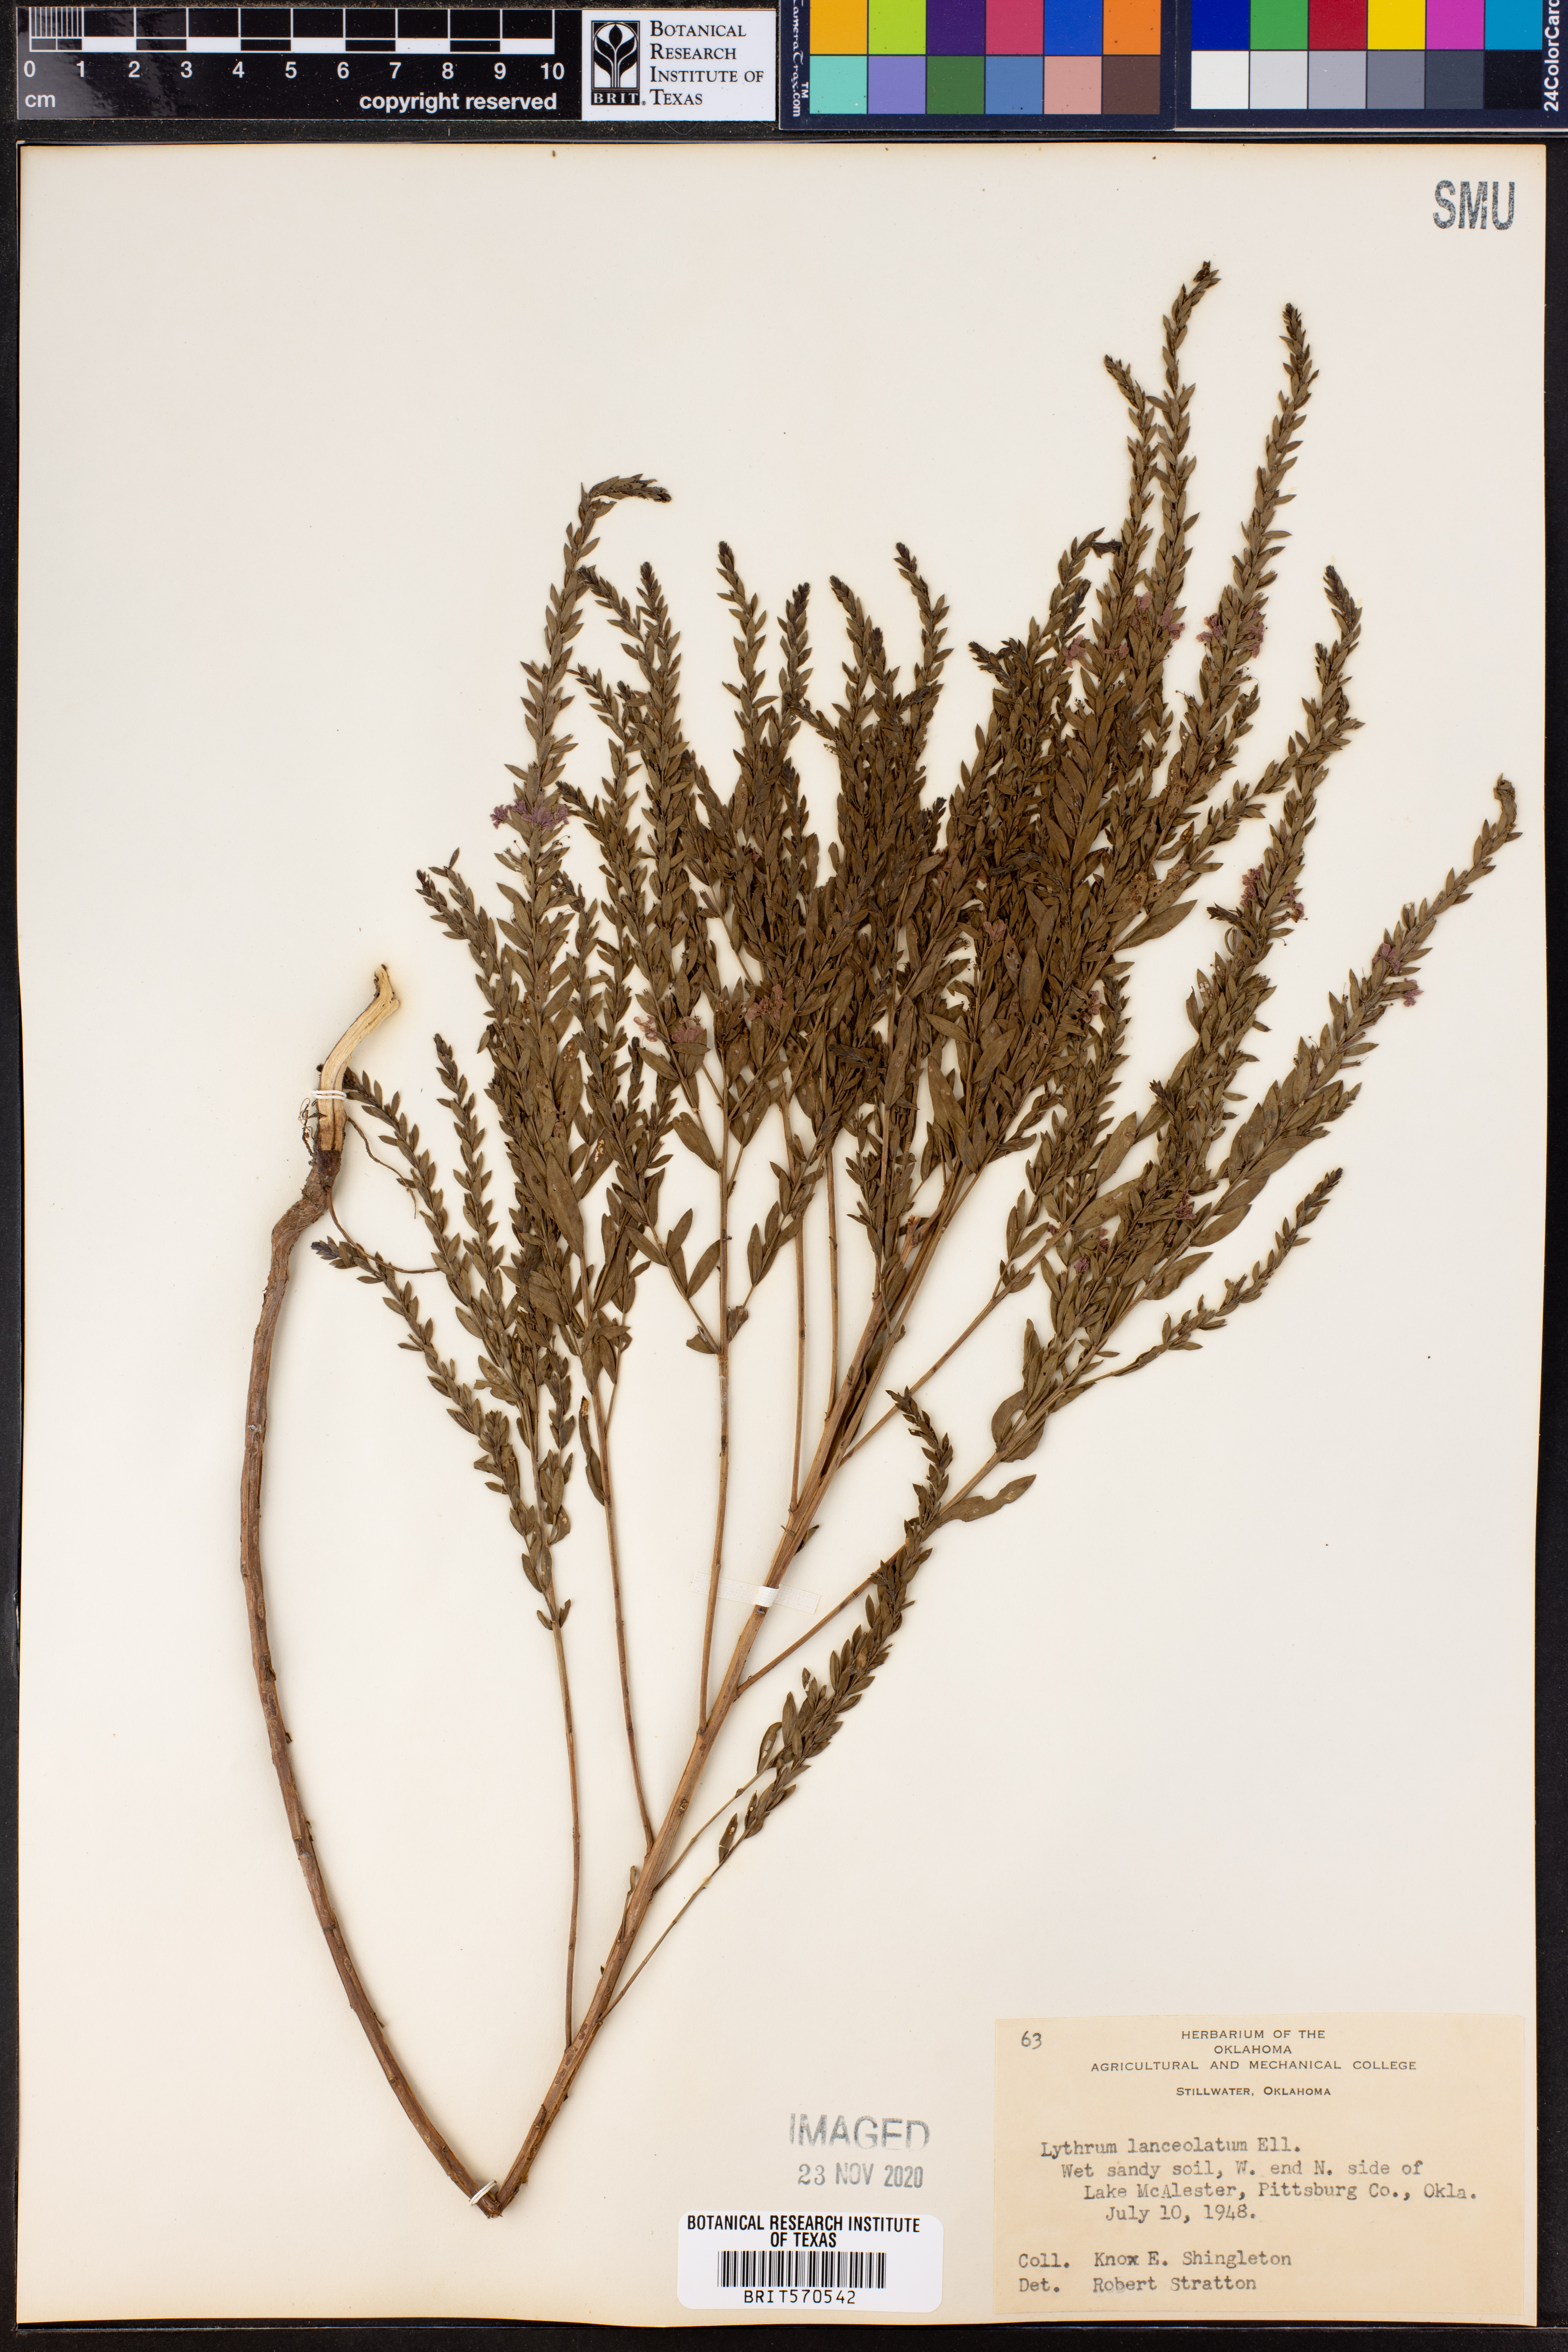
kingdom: Plantae
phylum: Tracheophyta
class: Magnoliopsida
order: Myrtales
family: Lythraceae
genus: Lythrum
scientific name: Lythrum alatum
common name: Winged loosestrife
